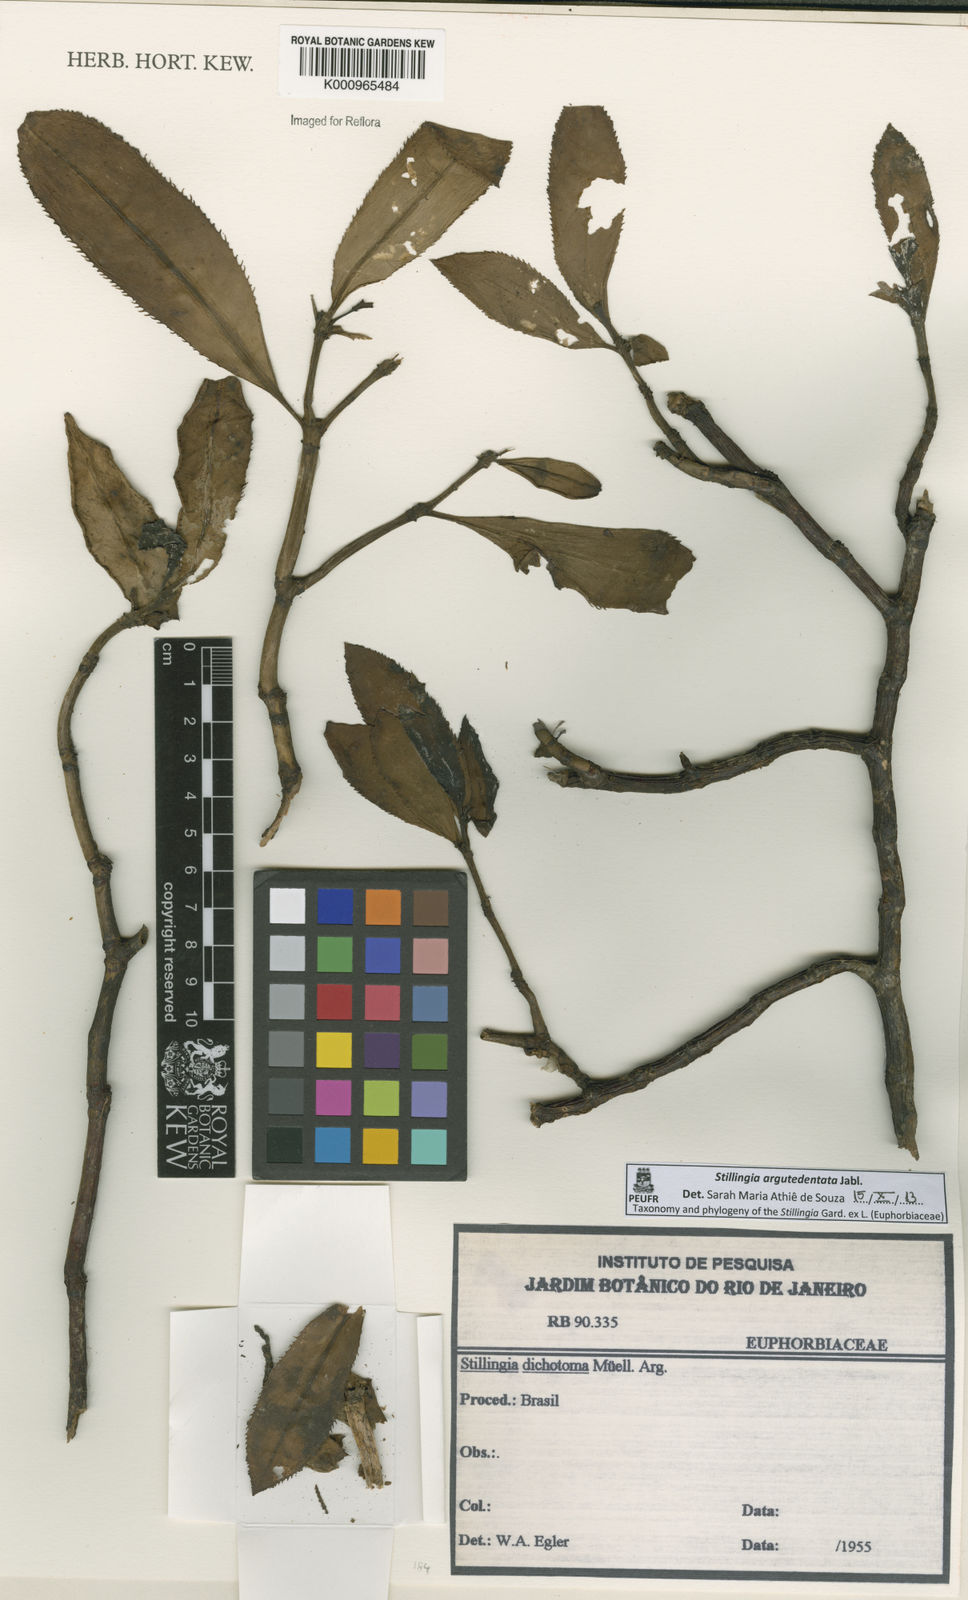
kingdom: Plantae
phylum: Tracheophyta
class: Magnoliopsida
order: Malpighiales
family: Euphorbiaceae
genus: Stillingia
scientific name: Stillingia argutedentata
